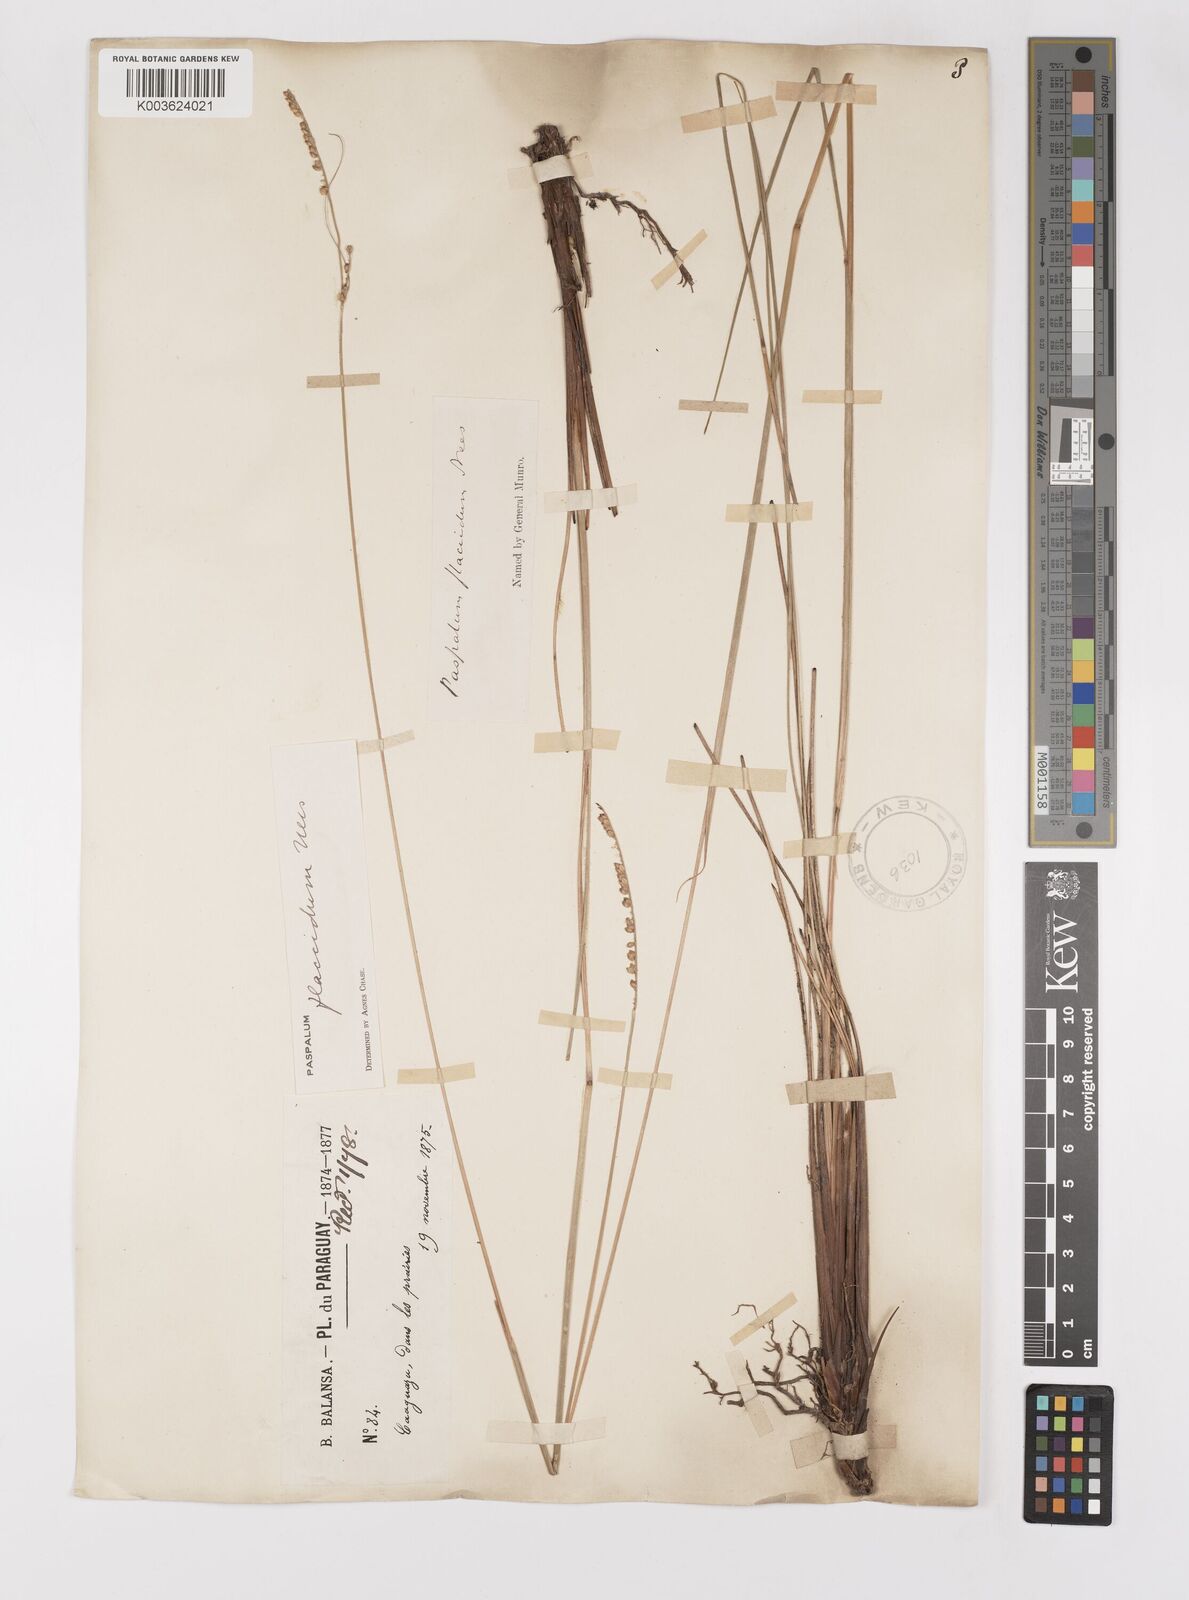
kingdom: Plantae
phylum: Tracheophyta
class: Liliopsida
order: Poales
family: Poaceae
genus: Paspalum
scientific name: Paspalum flaccidum
